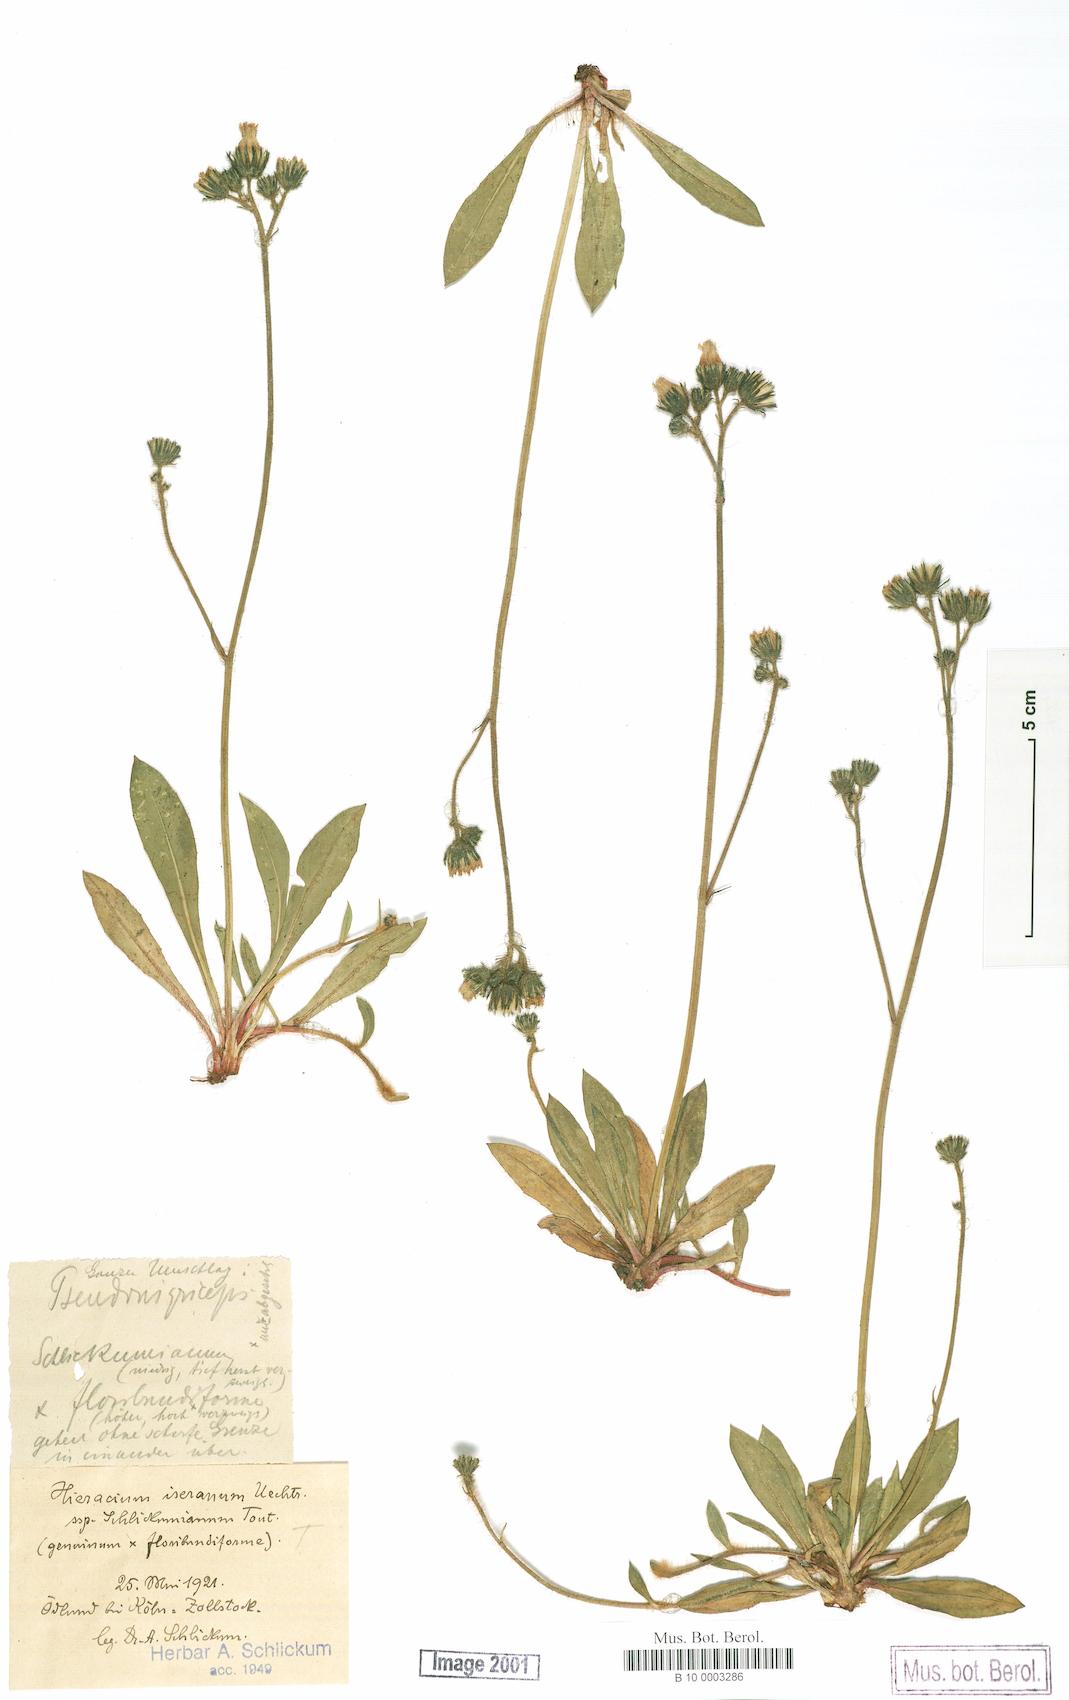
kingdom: Plantae
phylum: Tracheophyta
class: Magnoliopsida
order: Asterales
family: Asteraceae
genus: Pilosella
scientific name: Pilosella iserana
